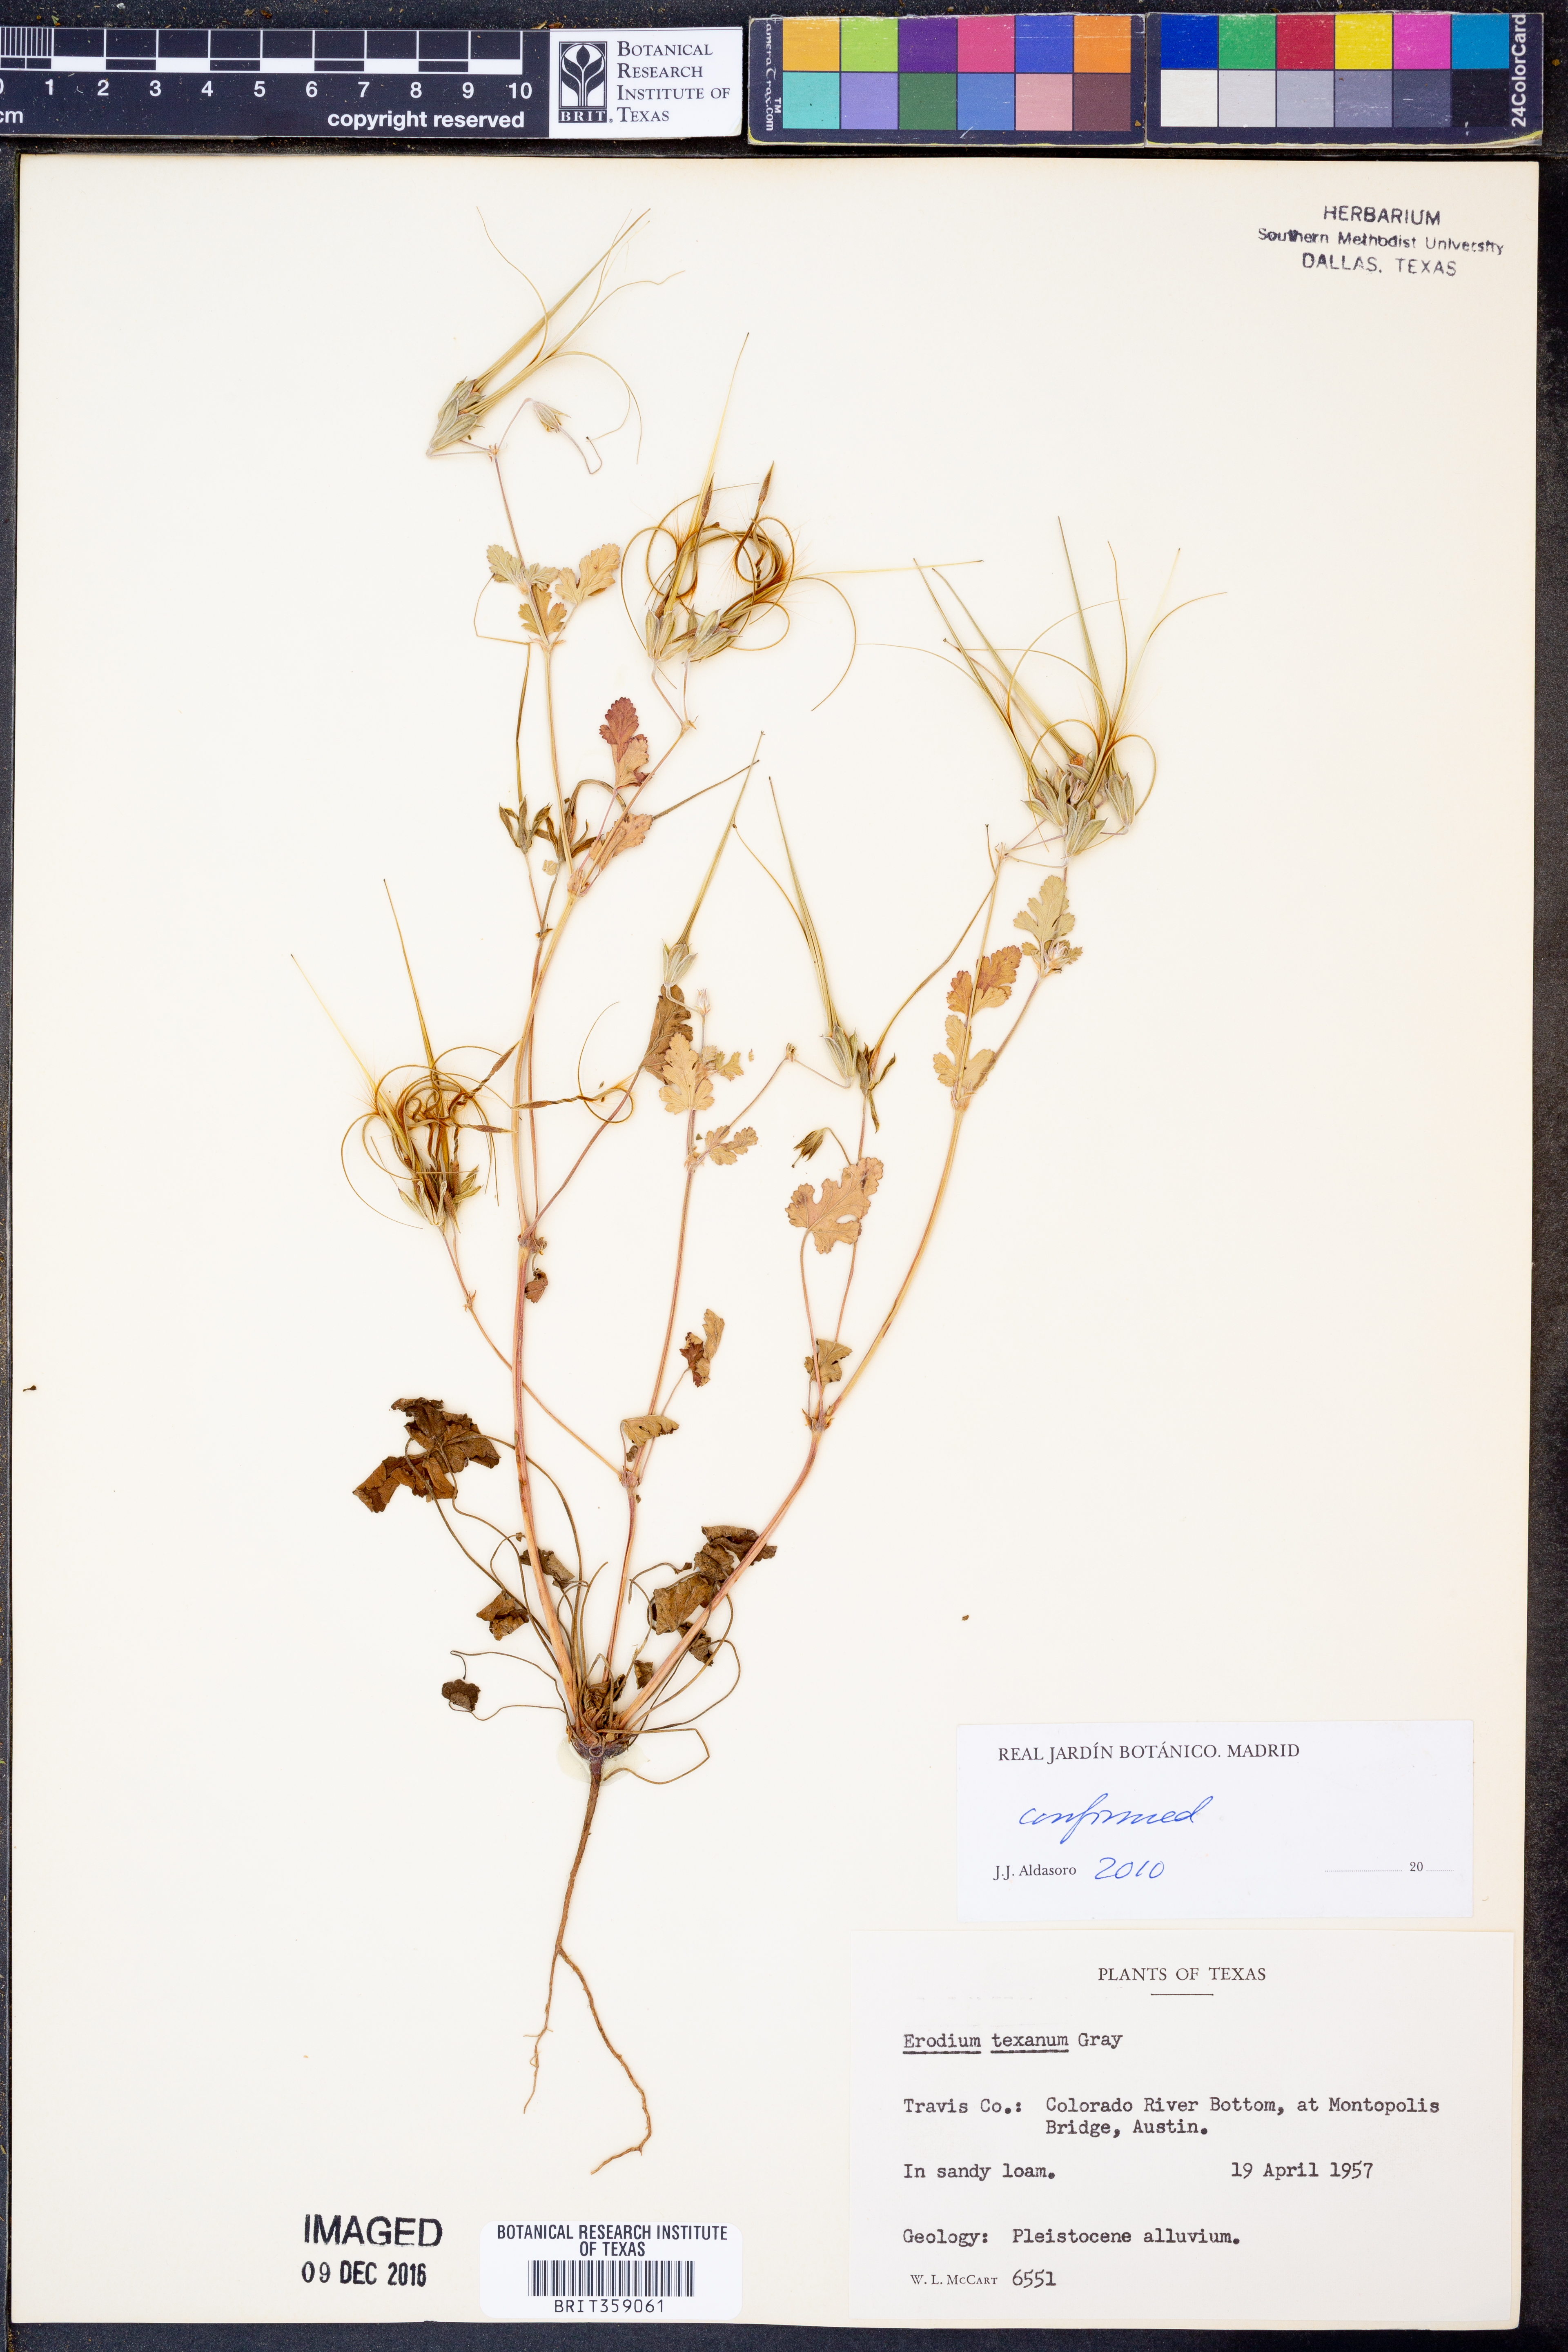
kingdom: Plantae
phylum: Tracheophyta
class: Magnoliopsida
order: Geraniales
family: Geraniaceae
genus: Erodium
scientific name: Erodium texanum
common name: Texas stork's-bill
